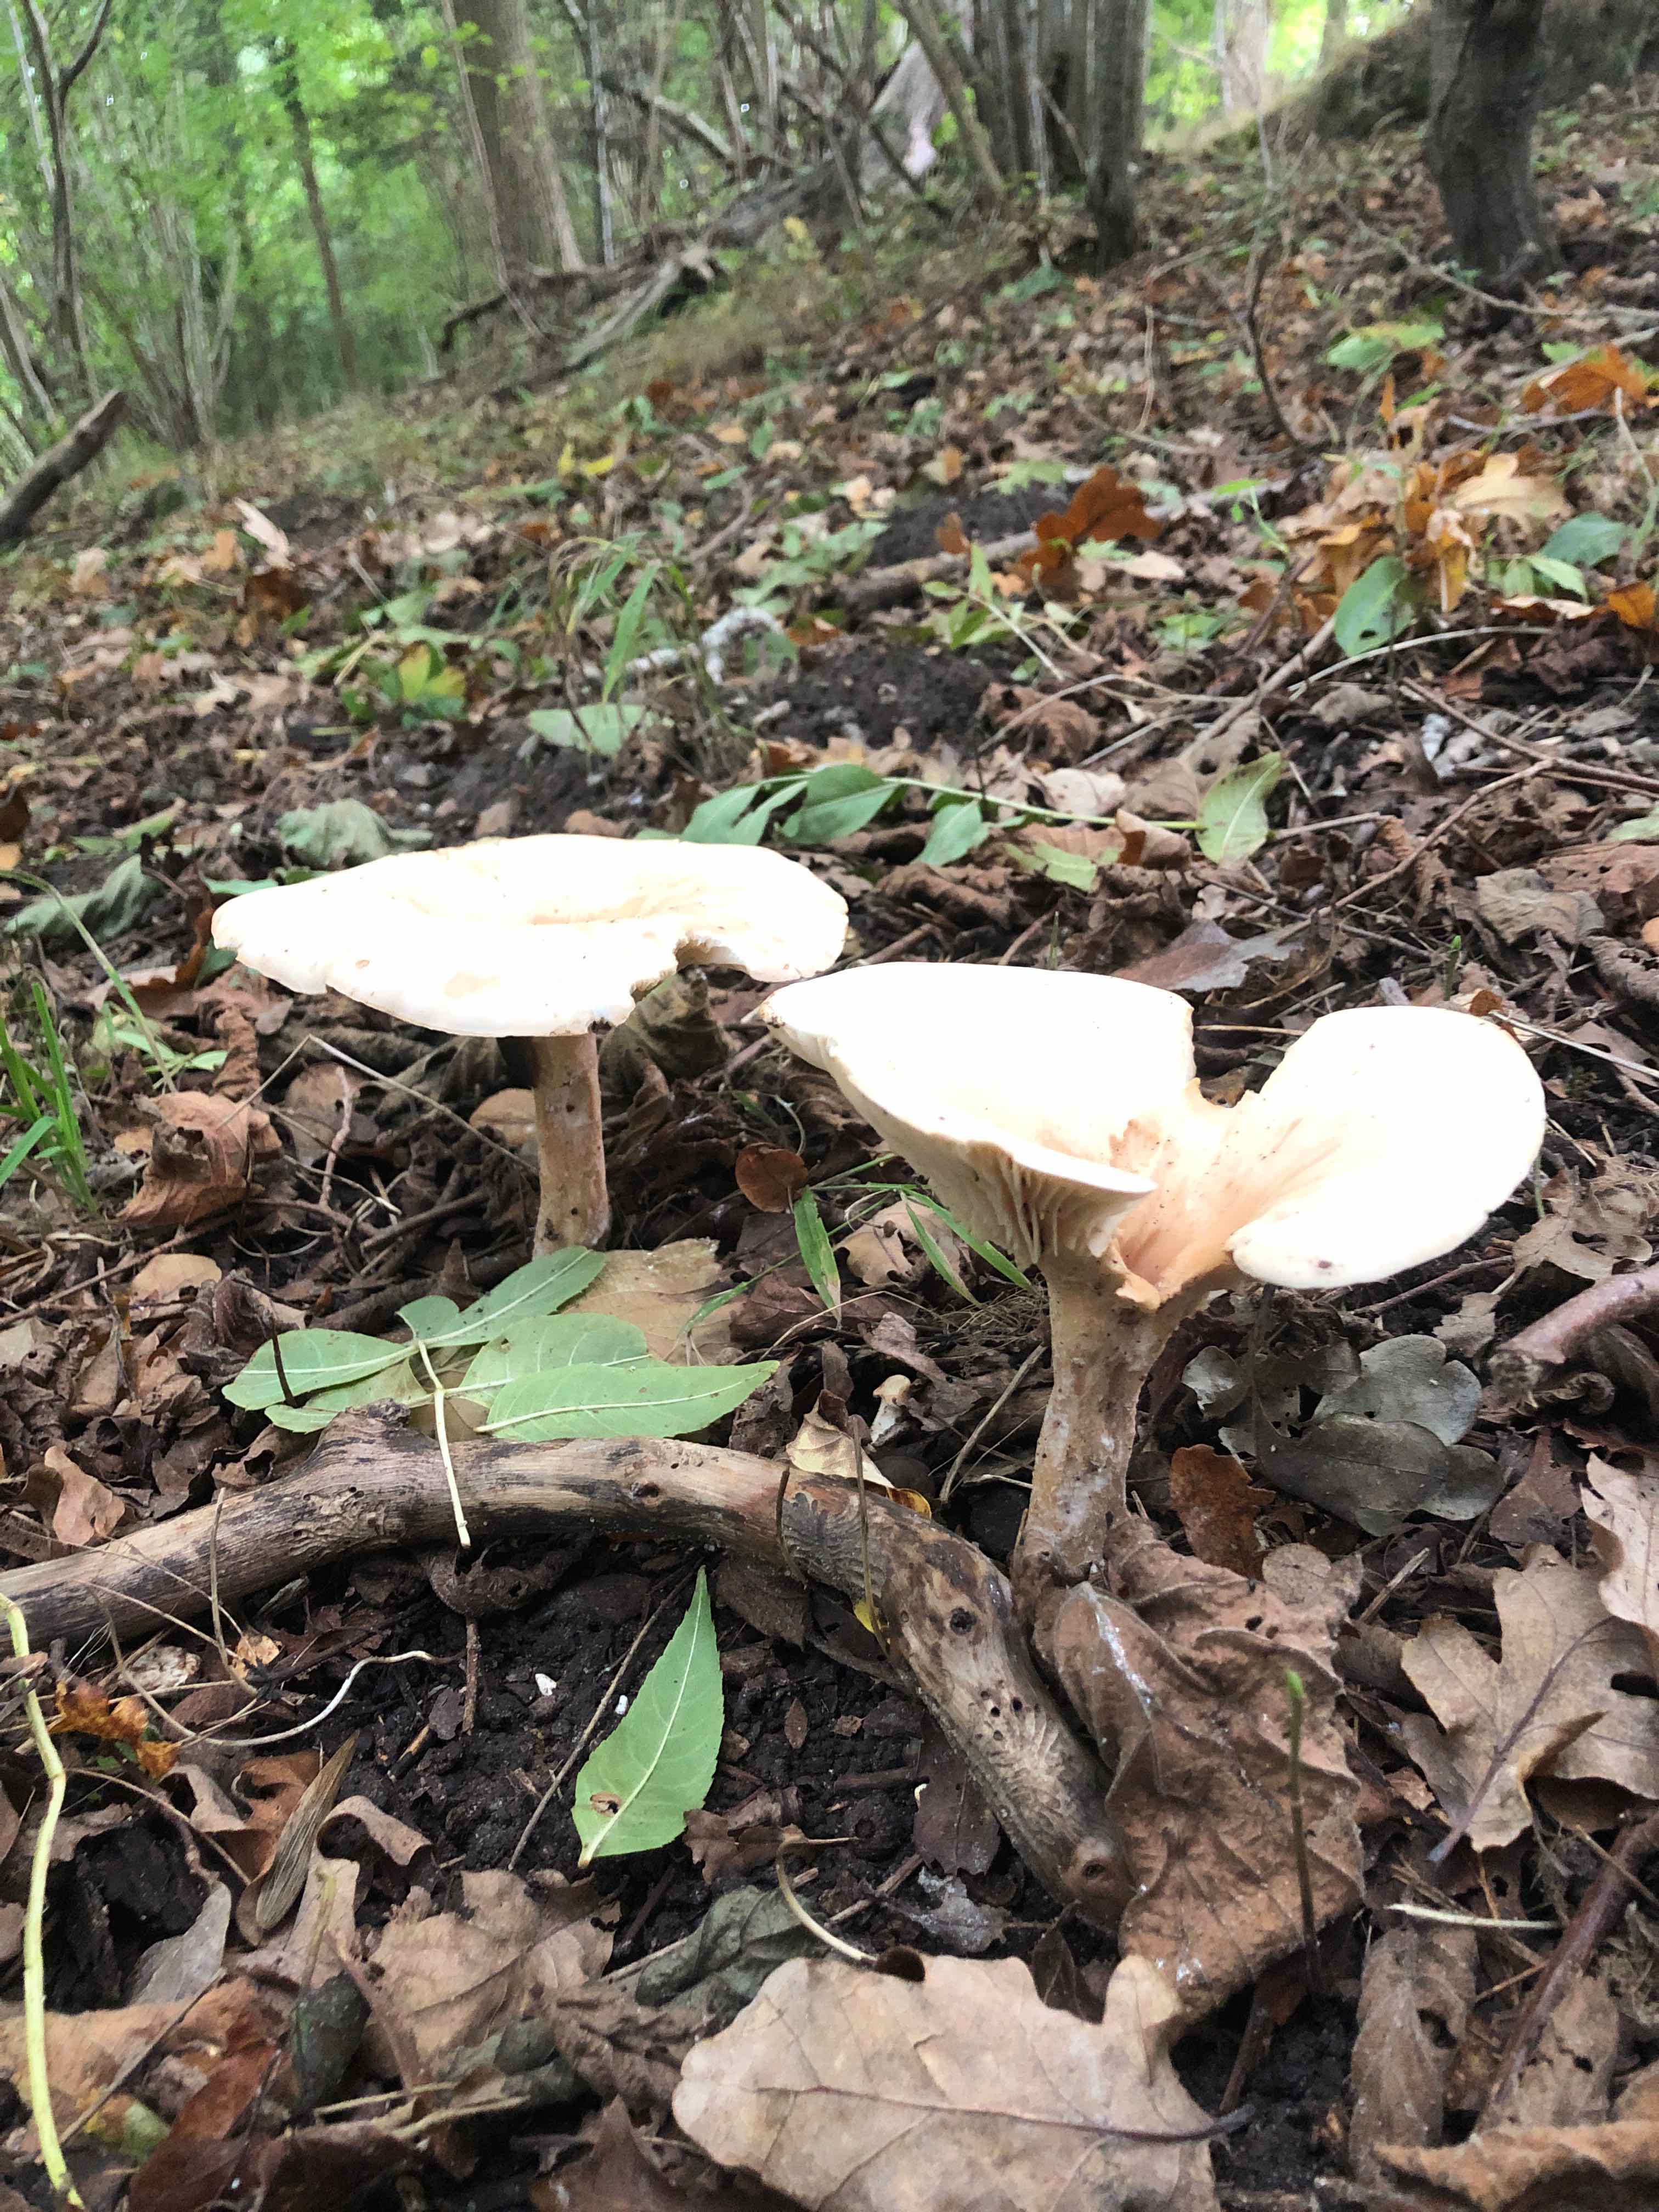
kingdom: Fungi
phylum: Basidiomycota
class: Agaricomycetes
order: Agaricales
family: Tricholomataceae
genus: Infundibulicybe
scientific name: Infundibulicybe geotropa
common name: stor tragthat
